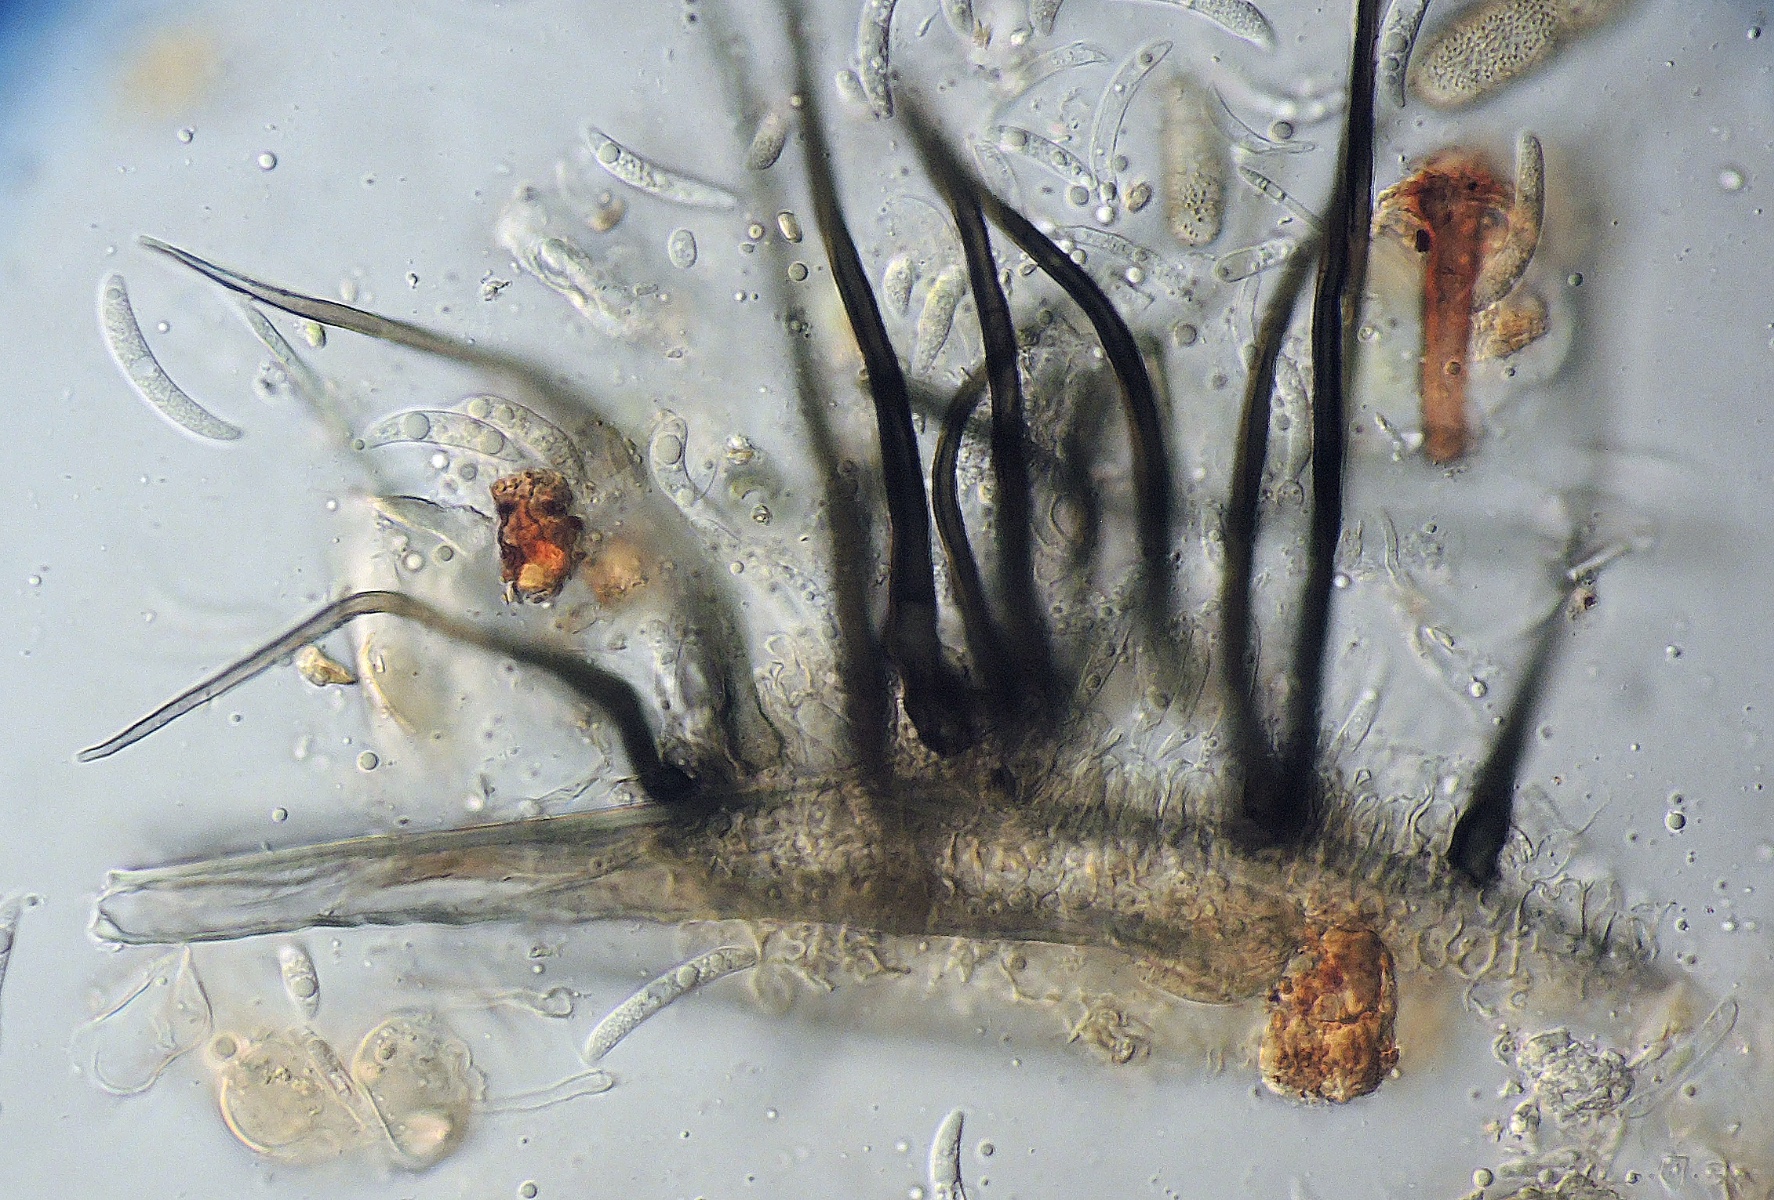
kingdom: Fungi
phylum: Ascomycota
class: Sordariomycetes
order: Glomerellales
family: Glomerellaceae
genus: Colletotrichum
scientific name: Colletotrichum graminicola
